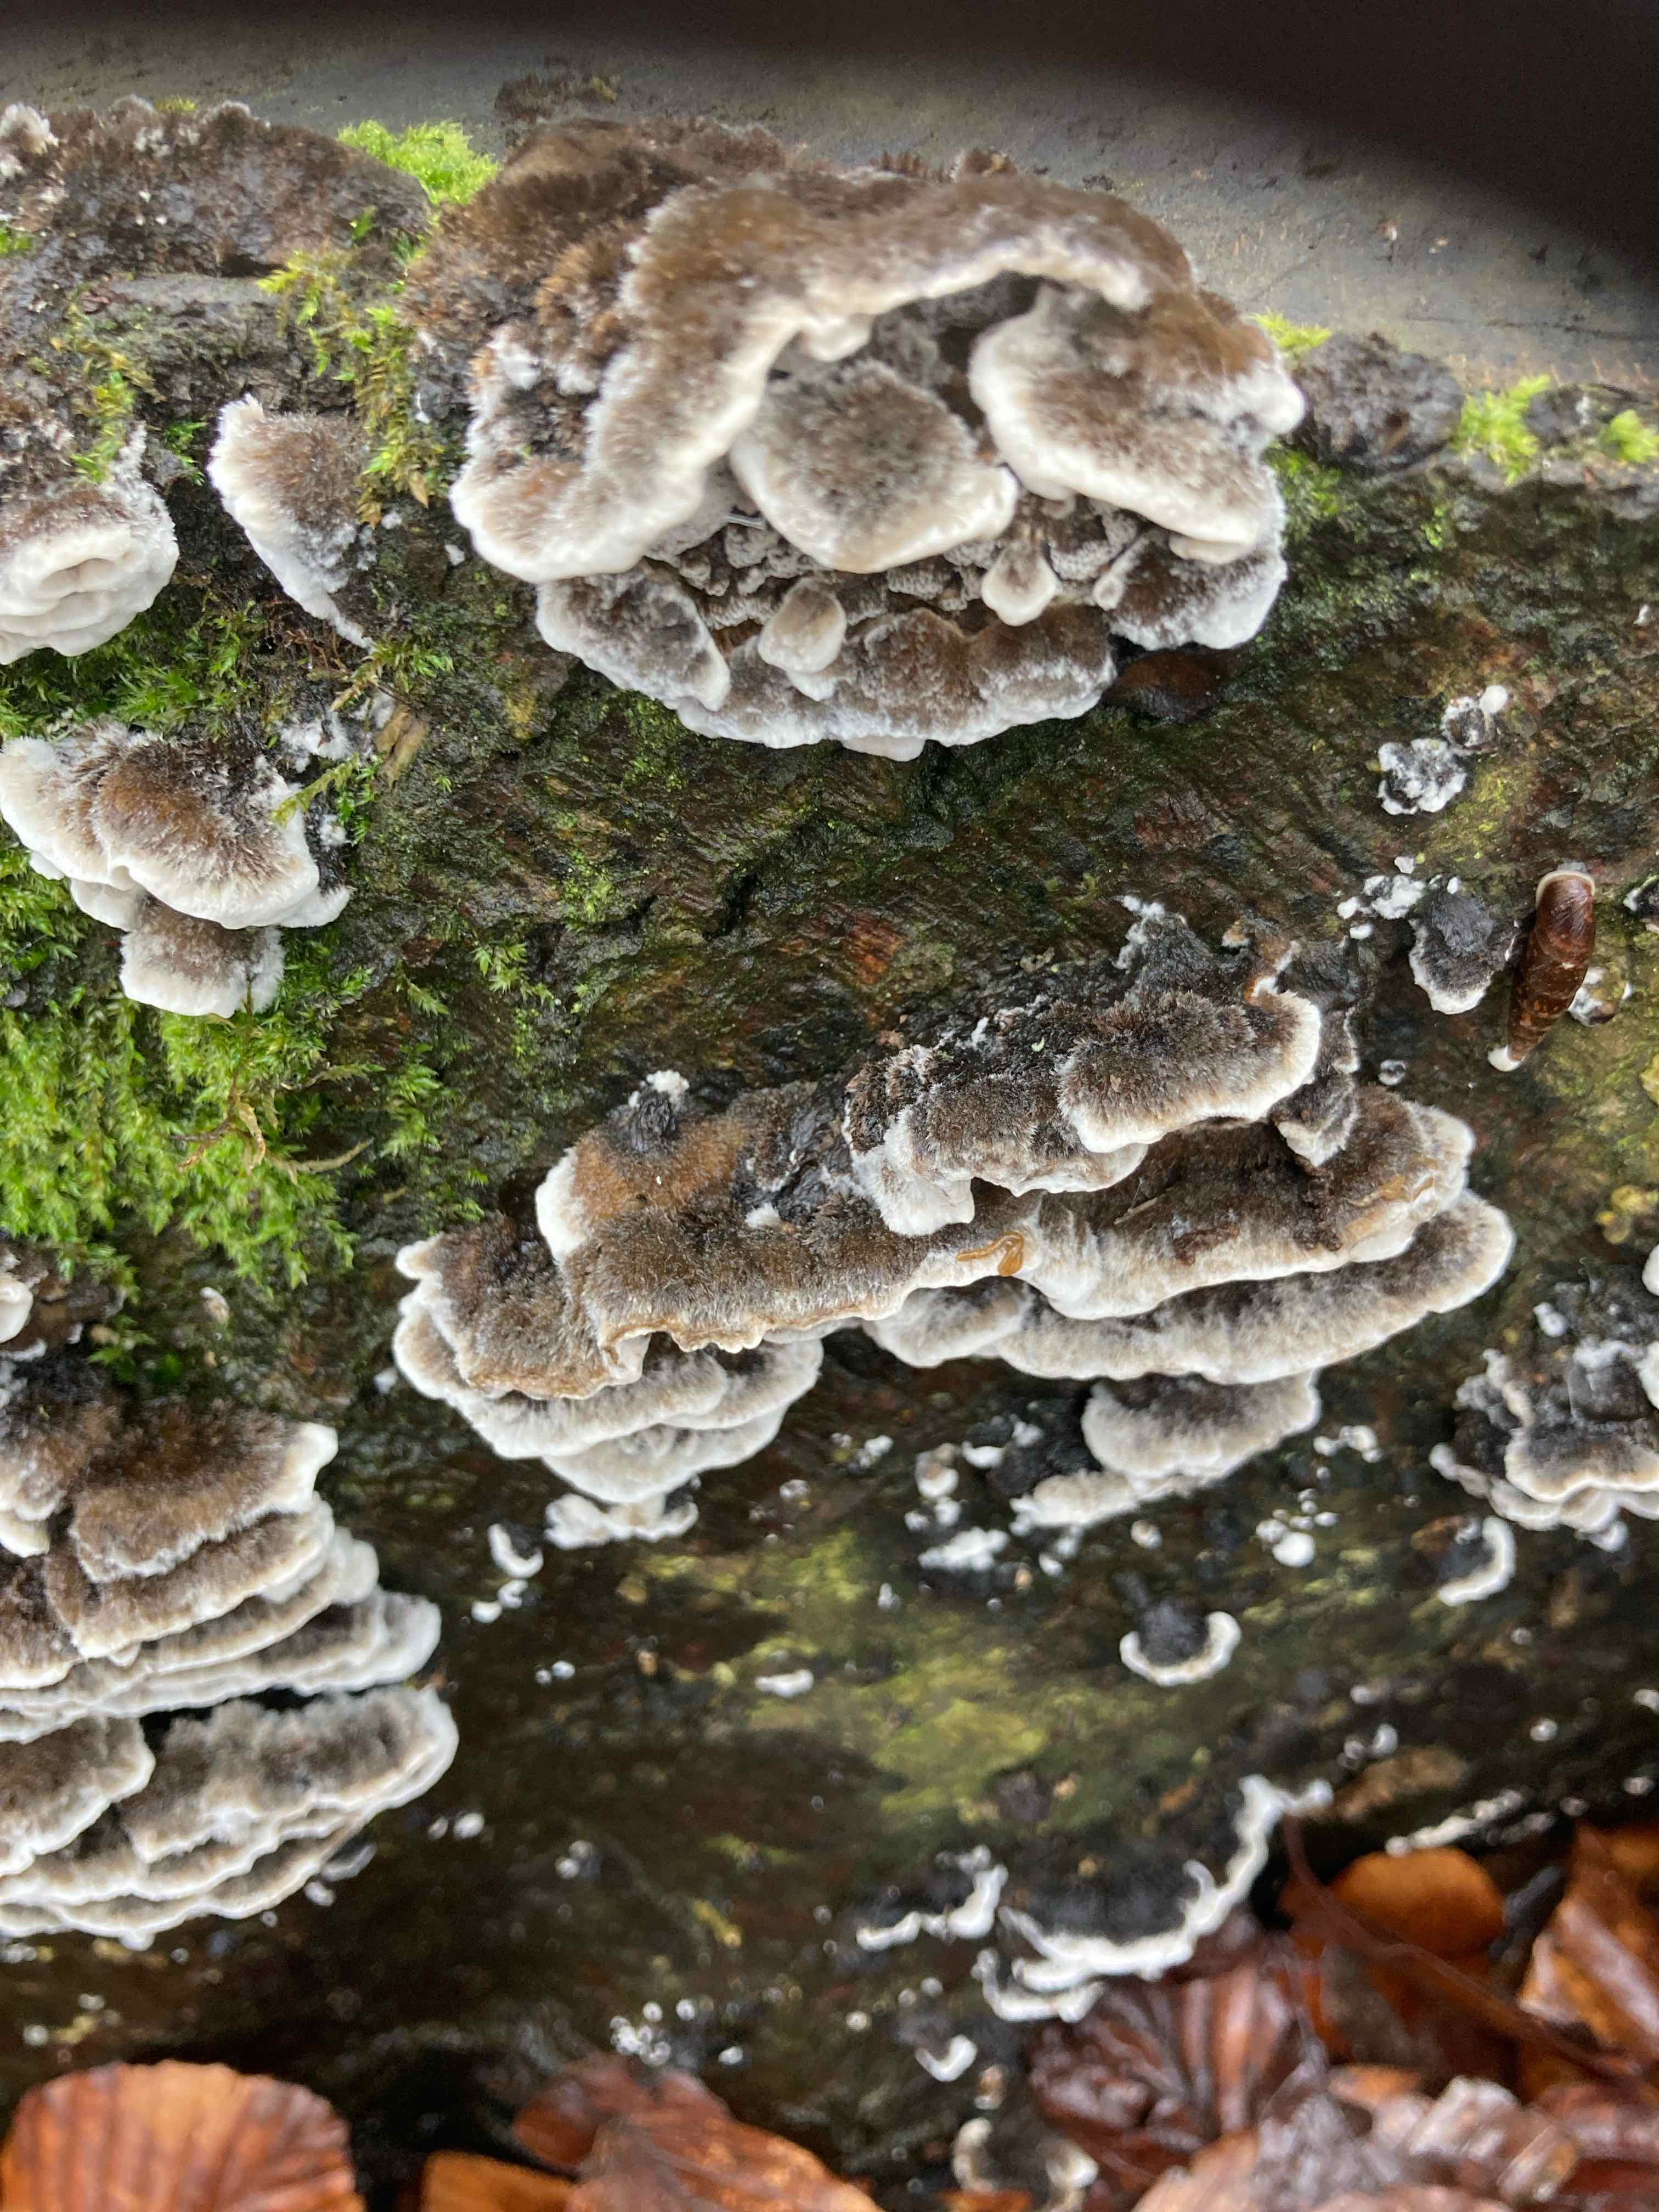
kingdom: Fungi
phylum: Basidiomycota
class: Agaricomycetes
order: Polyporales
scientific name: Polyporales
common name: poresvampordenen
